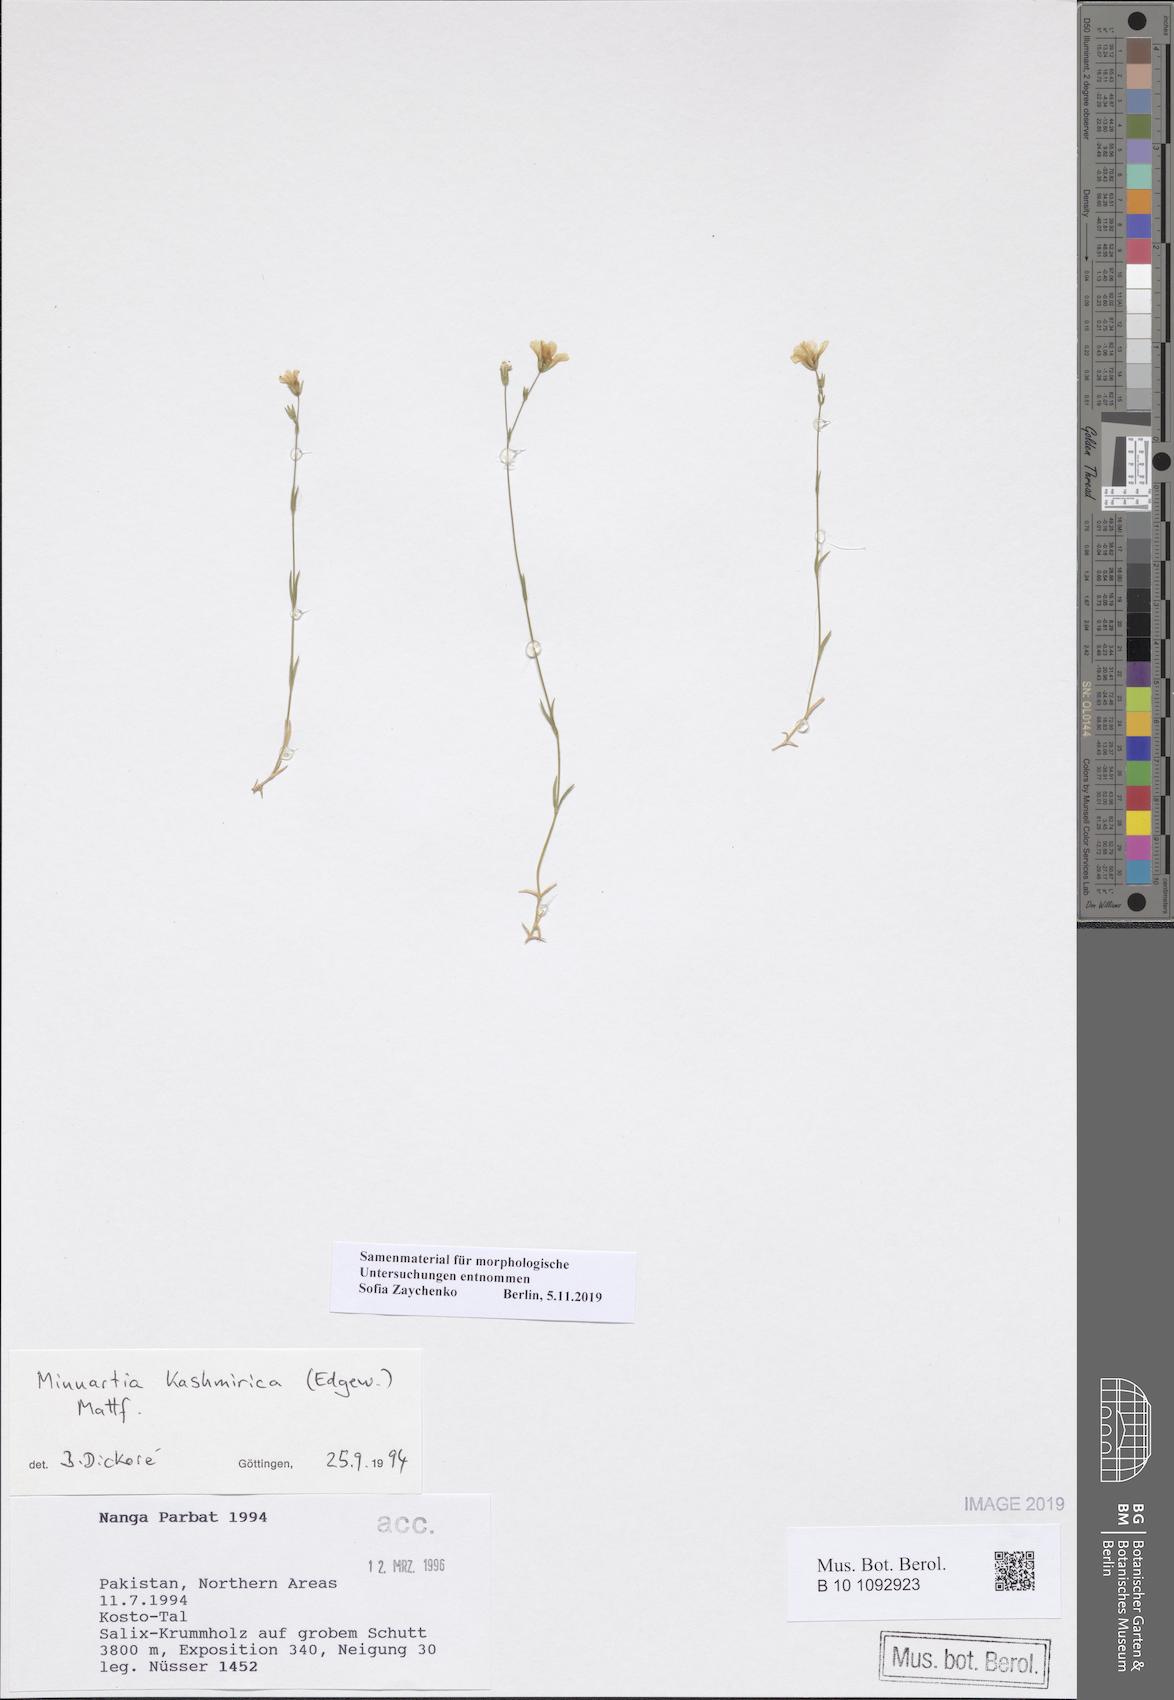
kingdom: Plantae
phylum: Tracheophyta
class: Magnoliopsida
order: Caryophyllales
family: Caryophyllaceae
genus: Sabulina
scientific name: Sabulina kashmirica
